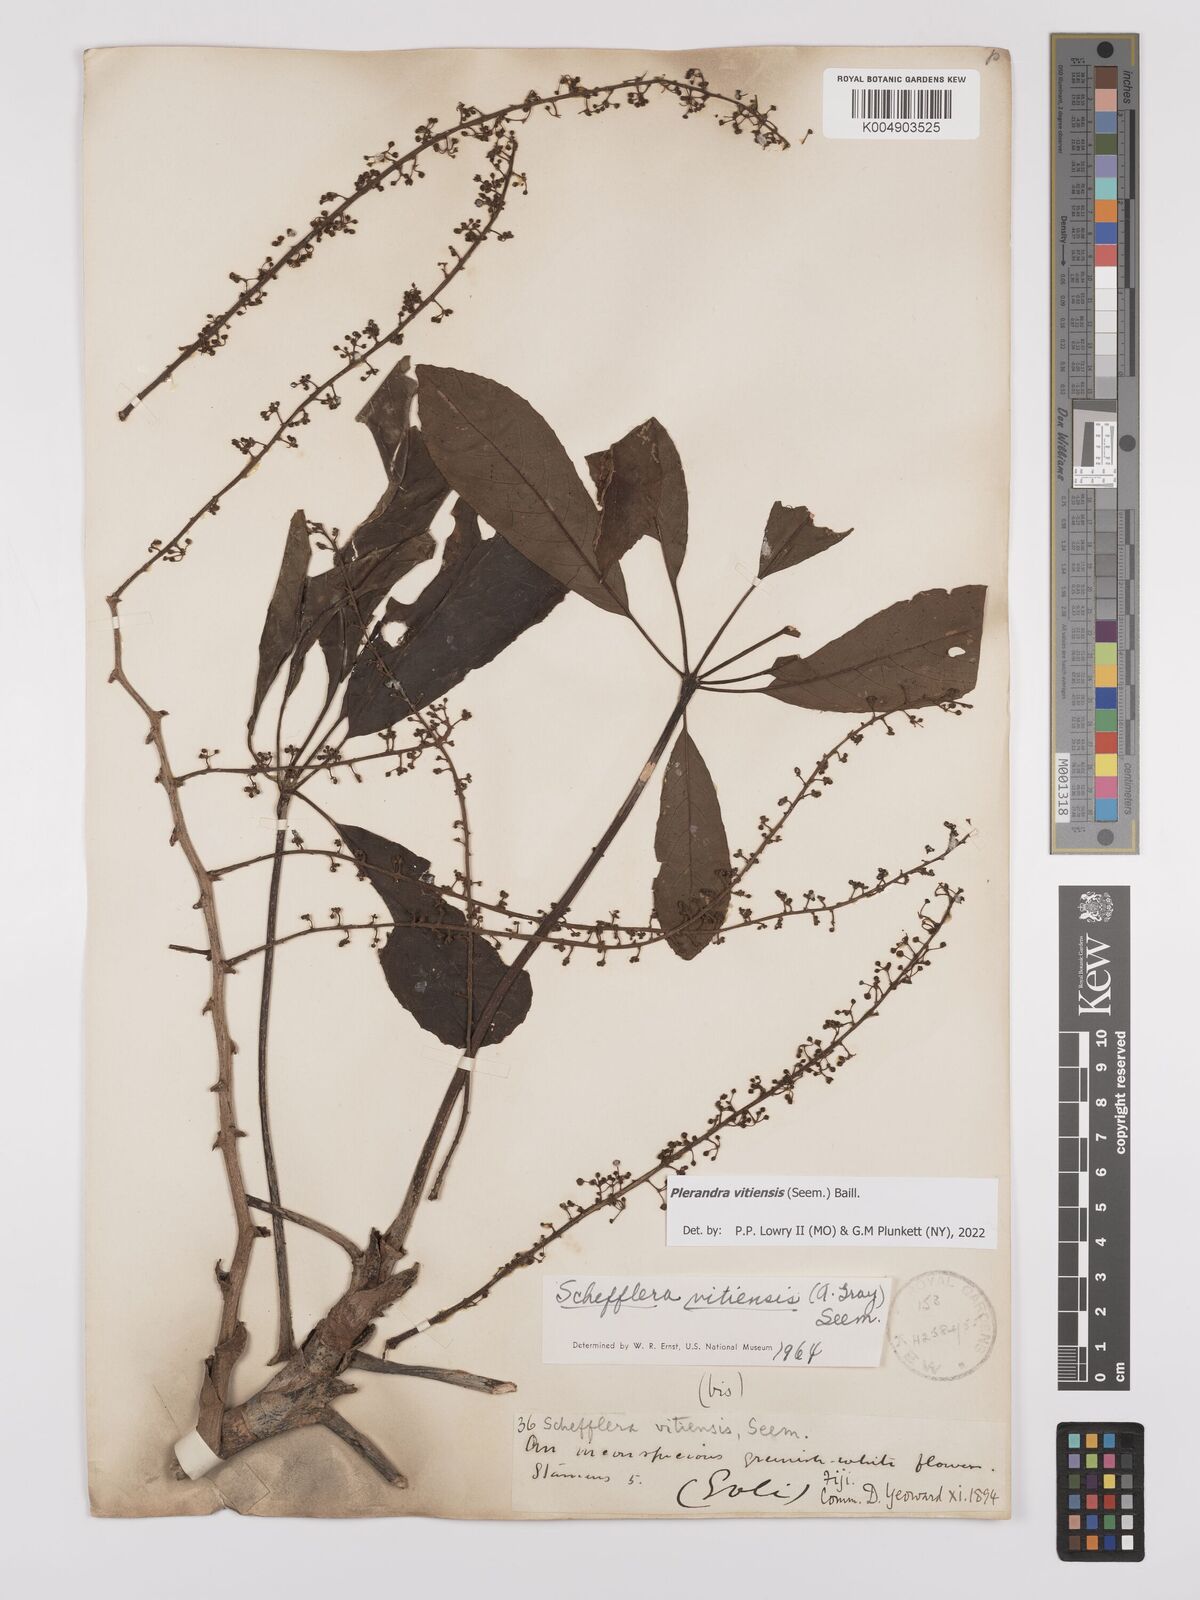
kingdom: Plantae
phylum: Tracheophyta
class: Magnoliopsida
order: Apiales
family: Araliaceae
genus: Schefflera
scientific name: Schefflera vitiensis
